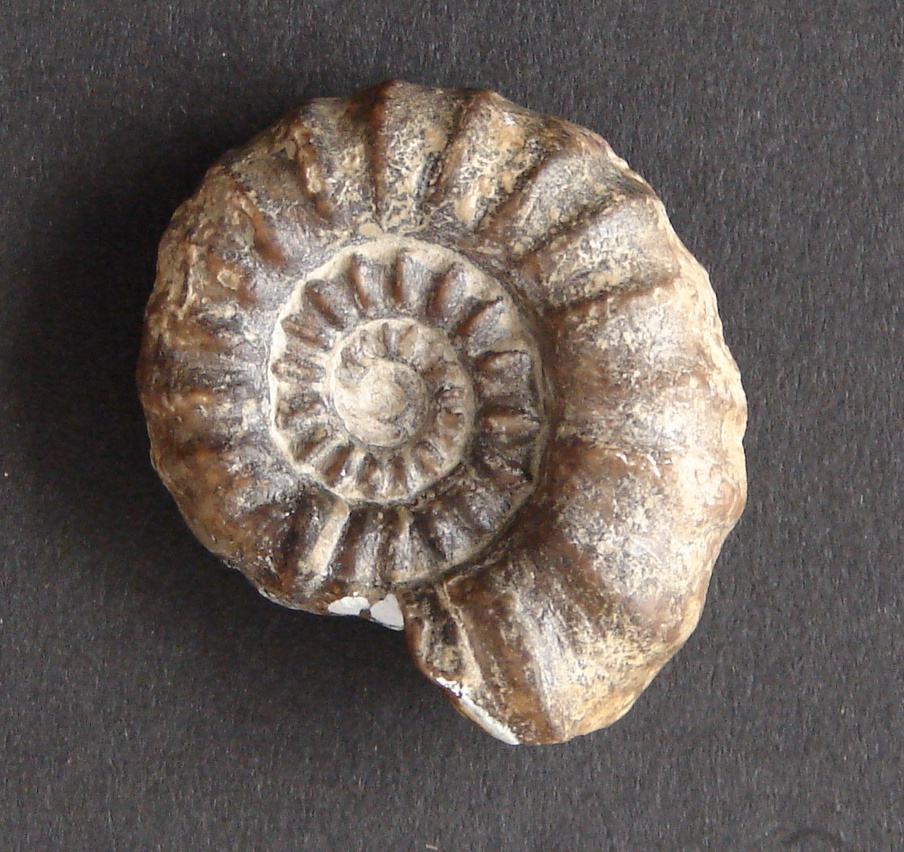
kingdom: Animalia
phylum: Mollusca
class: Cephalopoda
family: Liparoceratidae
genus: Androgynoceras
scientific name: Androgynoceras
